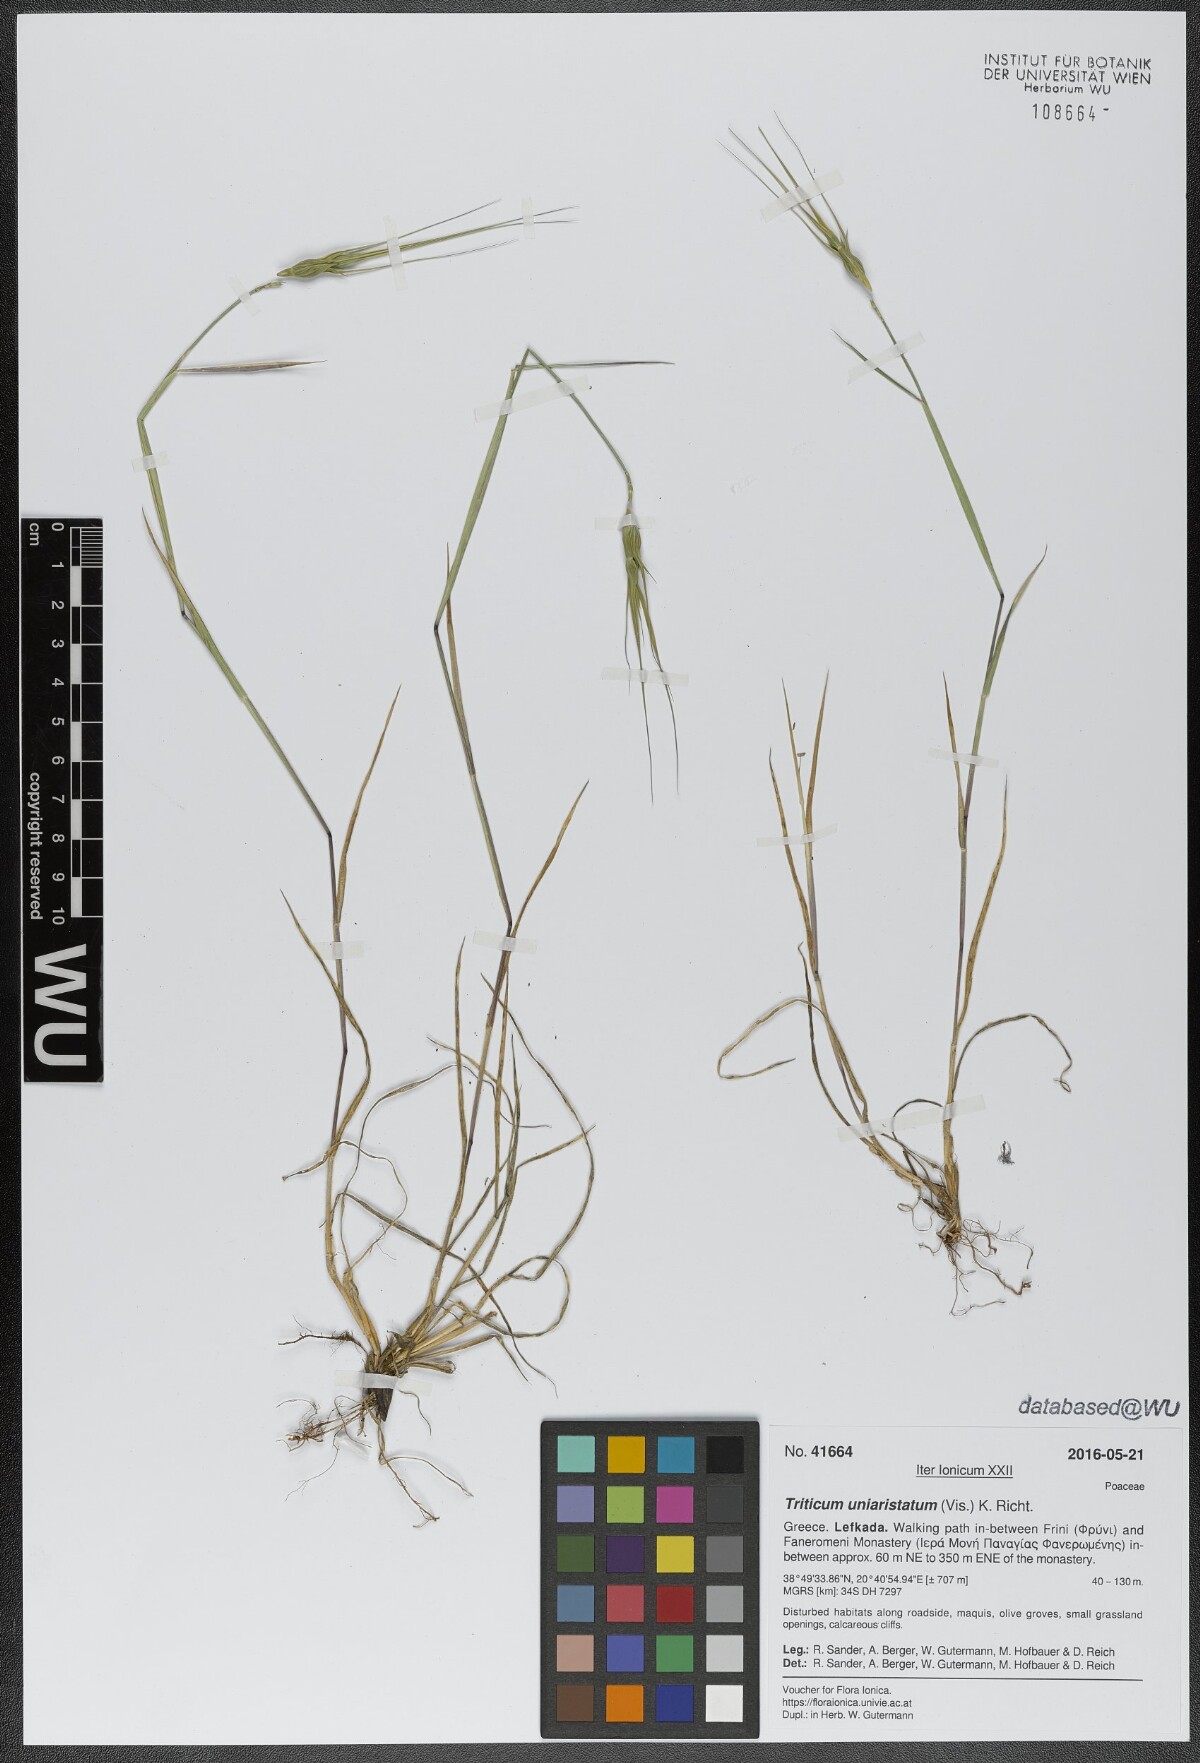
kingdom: Plantae
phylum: Tracheophyta
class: Liliopsida
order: Poales
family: Poaceae
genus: Aegilops
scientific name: Aegilops uniaristata
